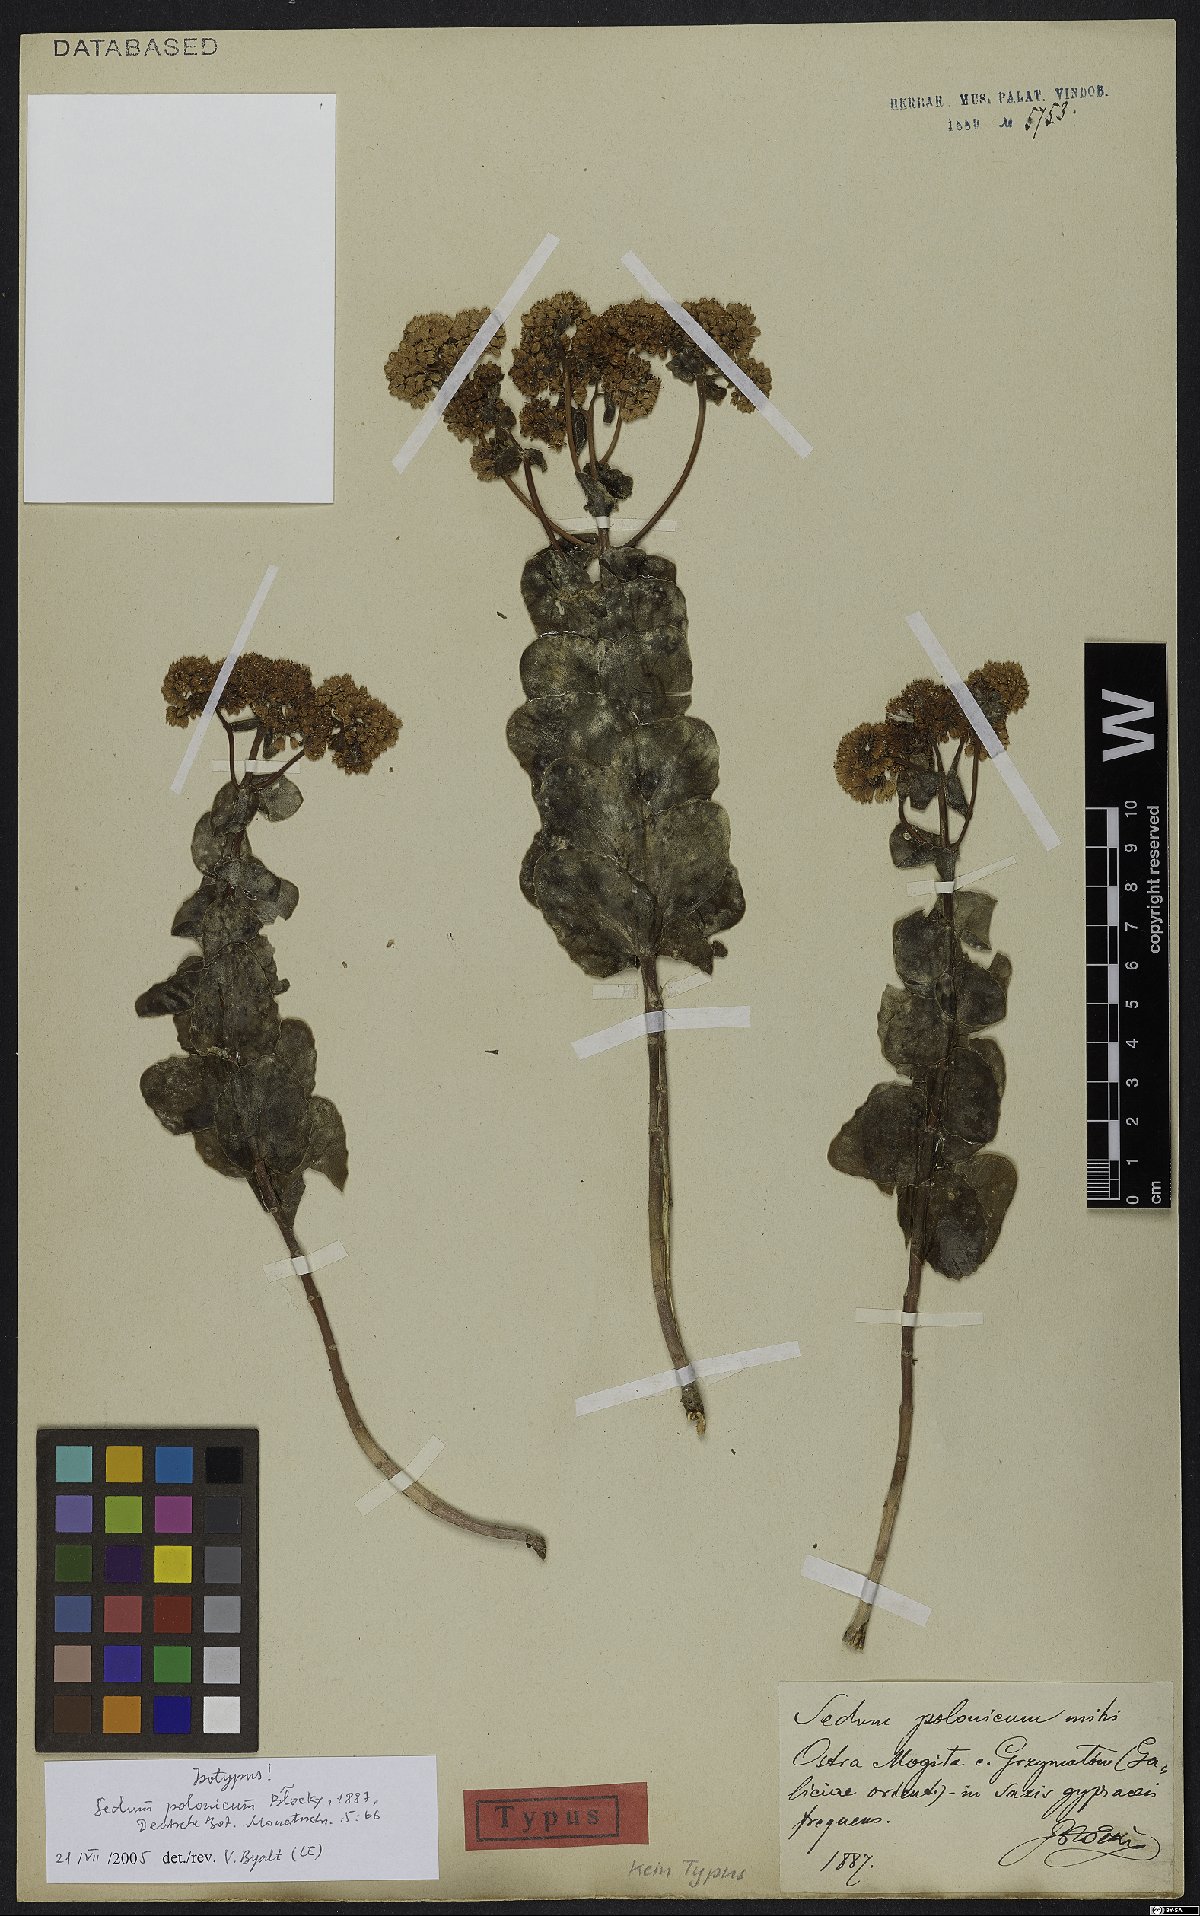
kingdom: Plantae
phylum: Tracheophyta
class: Magnoliopsida
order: Saxifragales
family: Crassulaceae
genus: Hylotelephium
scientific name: Hylotelephium maximum
